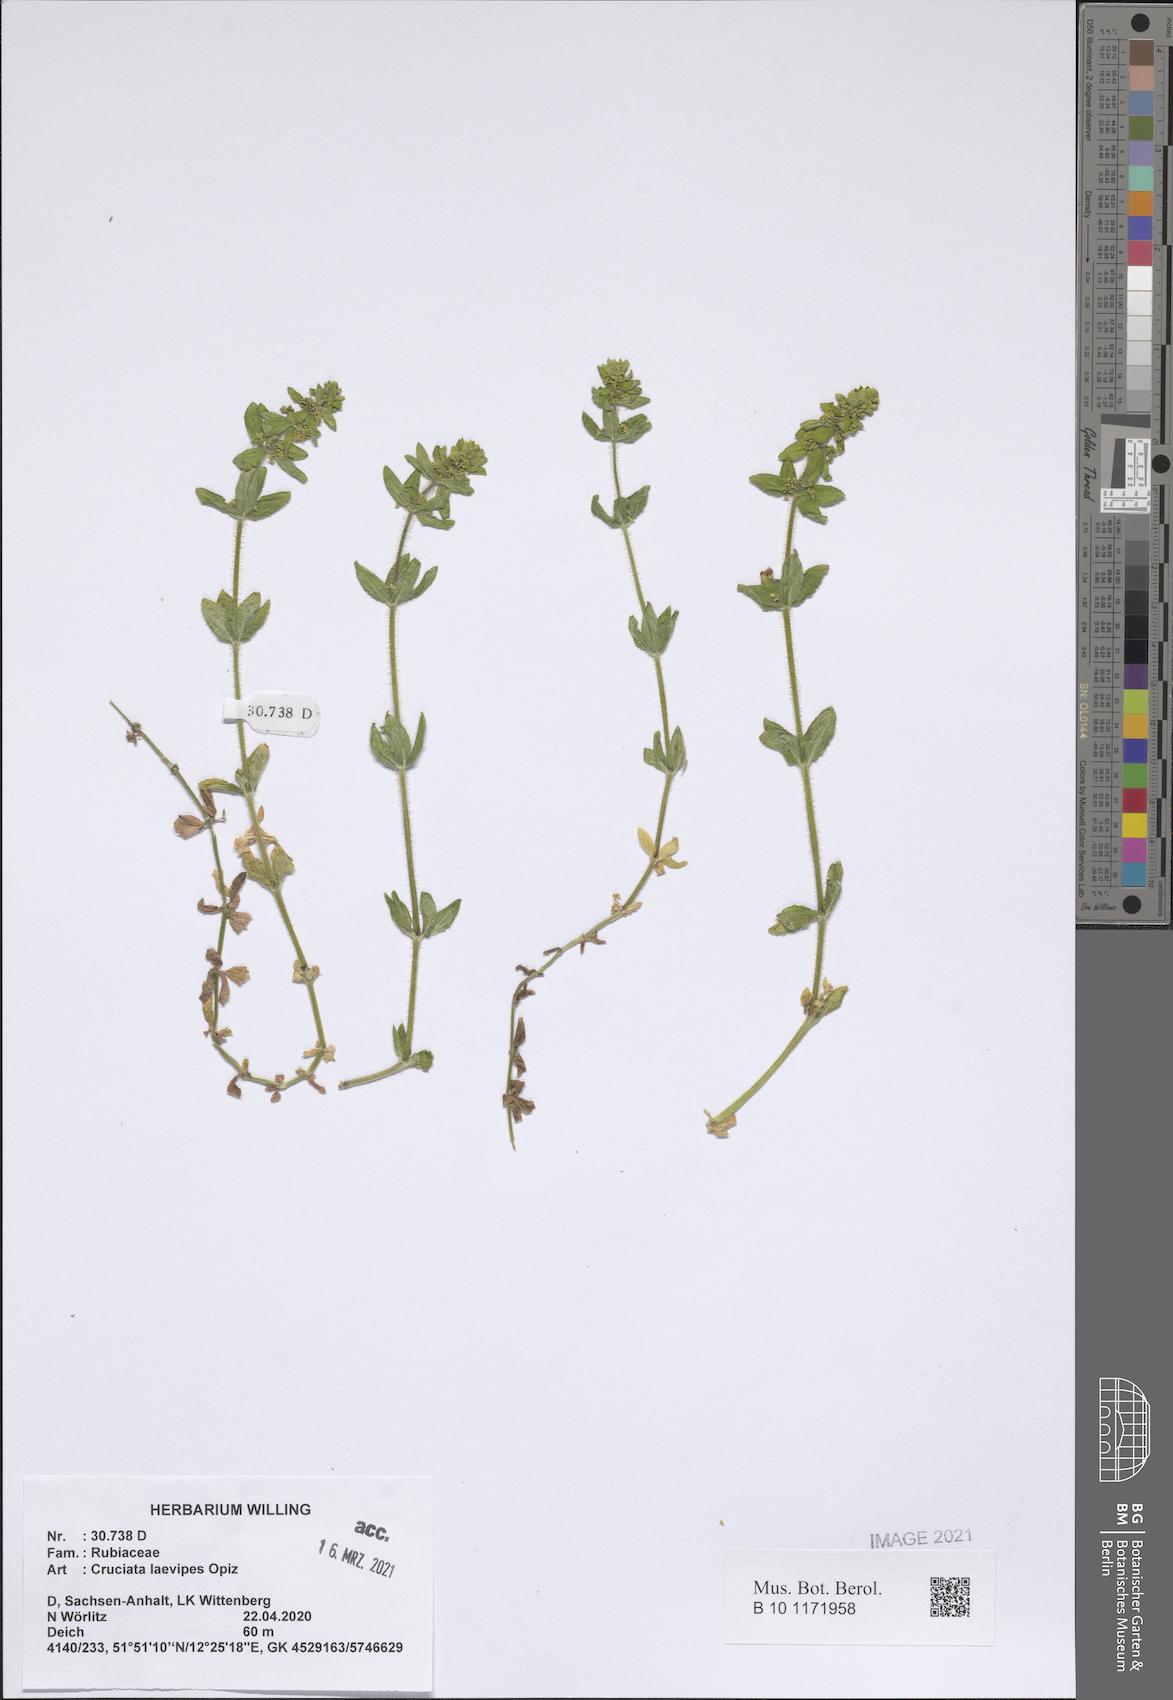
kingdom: Plantae
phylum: Tracheophyta
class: Magnoliopsida
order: Gentianales
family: Rubiaceae
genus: Cruciata
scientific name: Cruciata laevipes
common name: Crosswort
